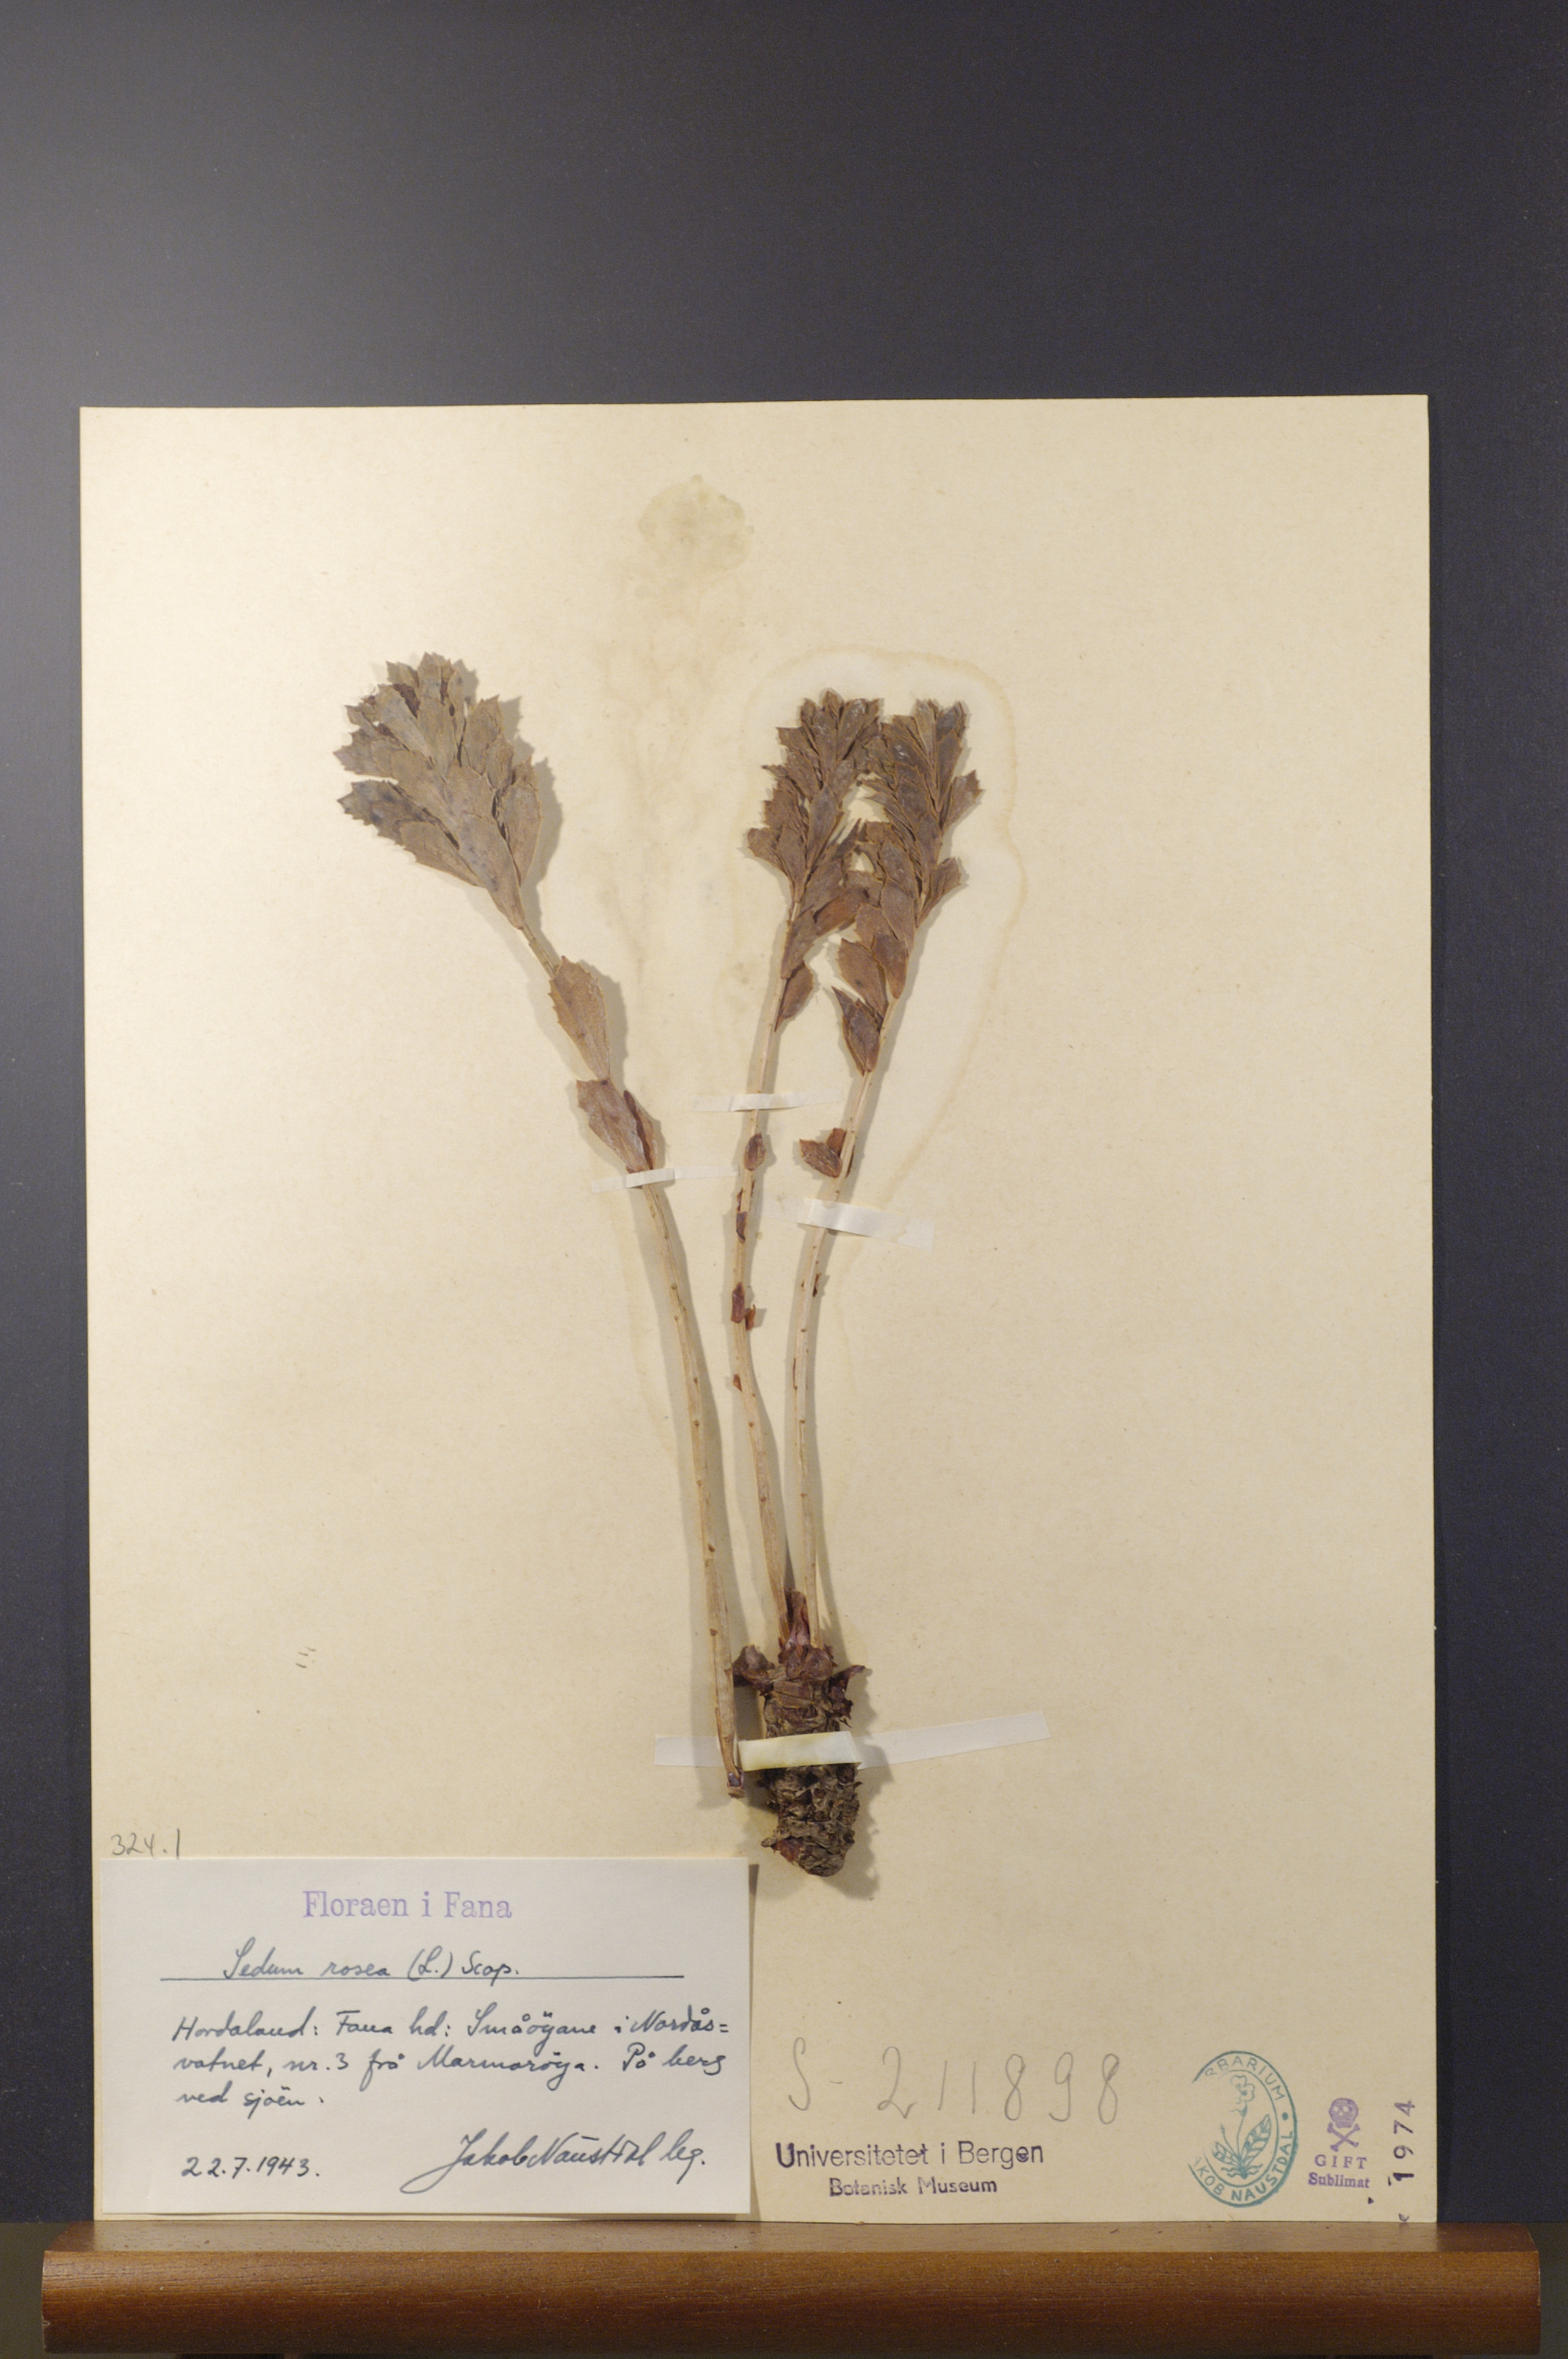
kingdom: Plantae
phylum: Tracheophyta
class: Magnoliopsida
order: Saxifragales
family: Crassulaceae
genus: Rhodiola
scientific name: Rhodiola rosea
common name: Roseroot
